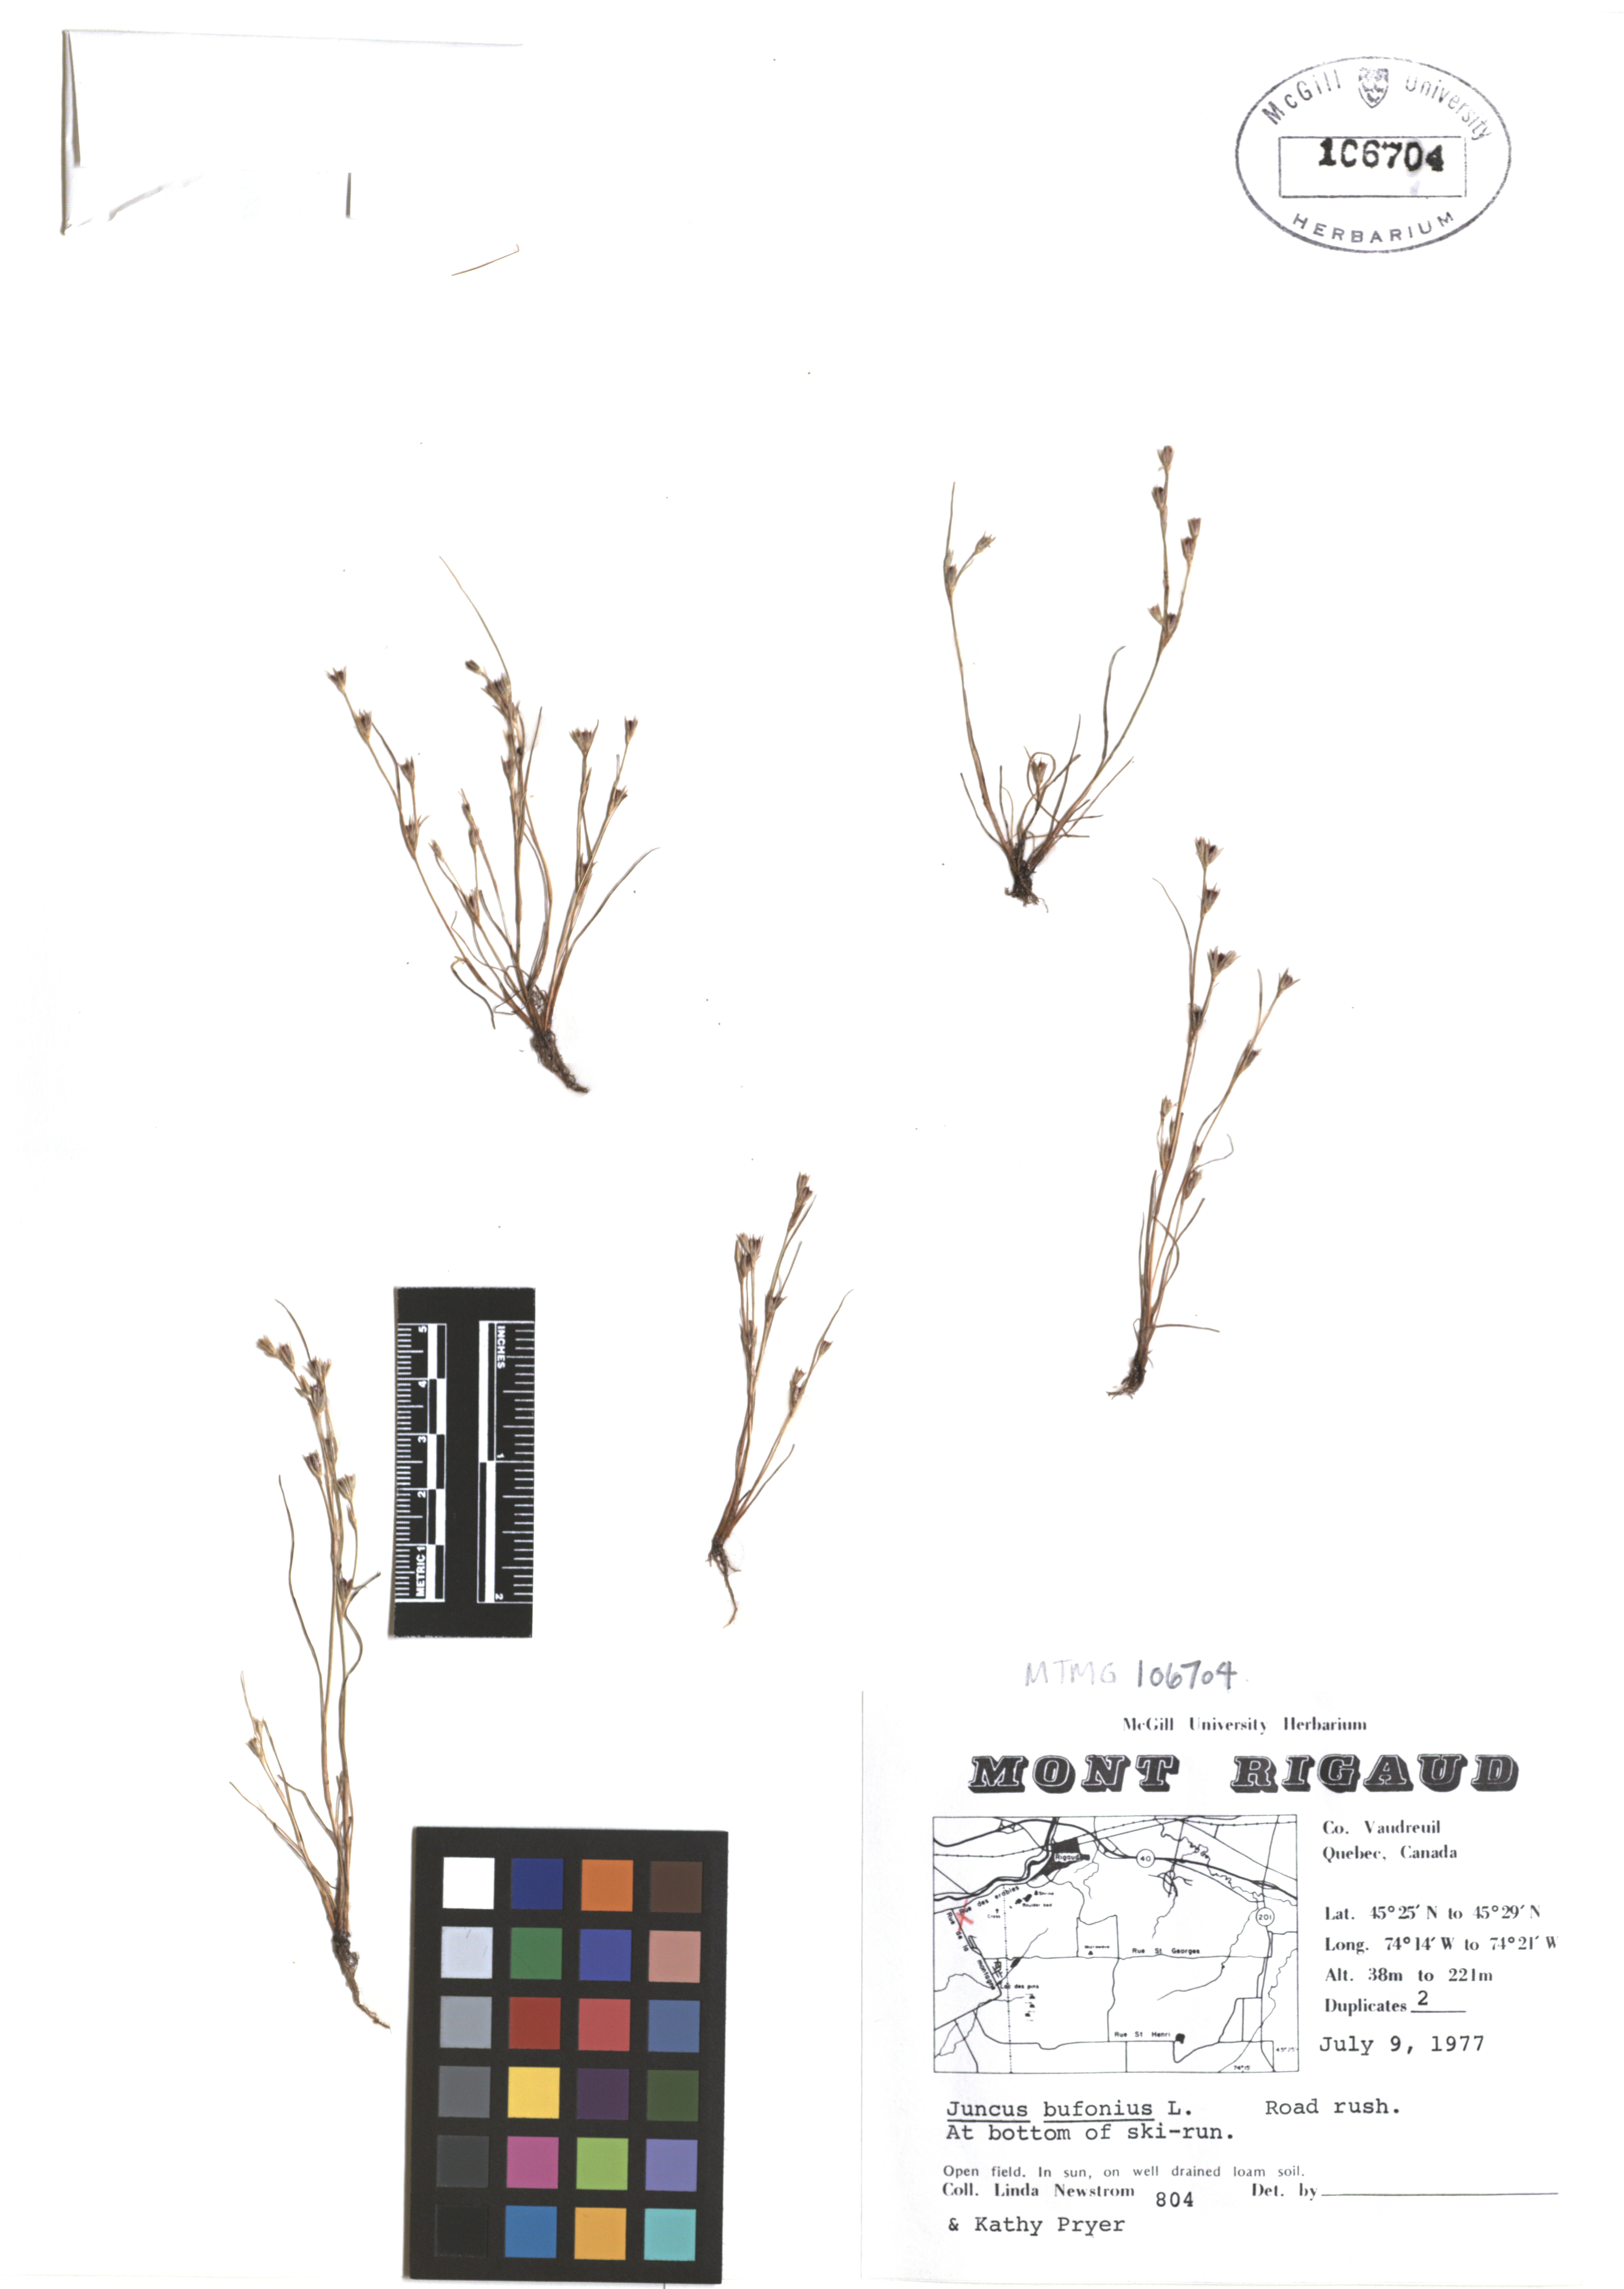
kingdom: Plantae
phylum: Tracheophyta
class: Liliopsida
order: Poales
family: Juncaceae
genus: Juncus
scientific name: Juncus bufonius
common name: Toad rush
